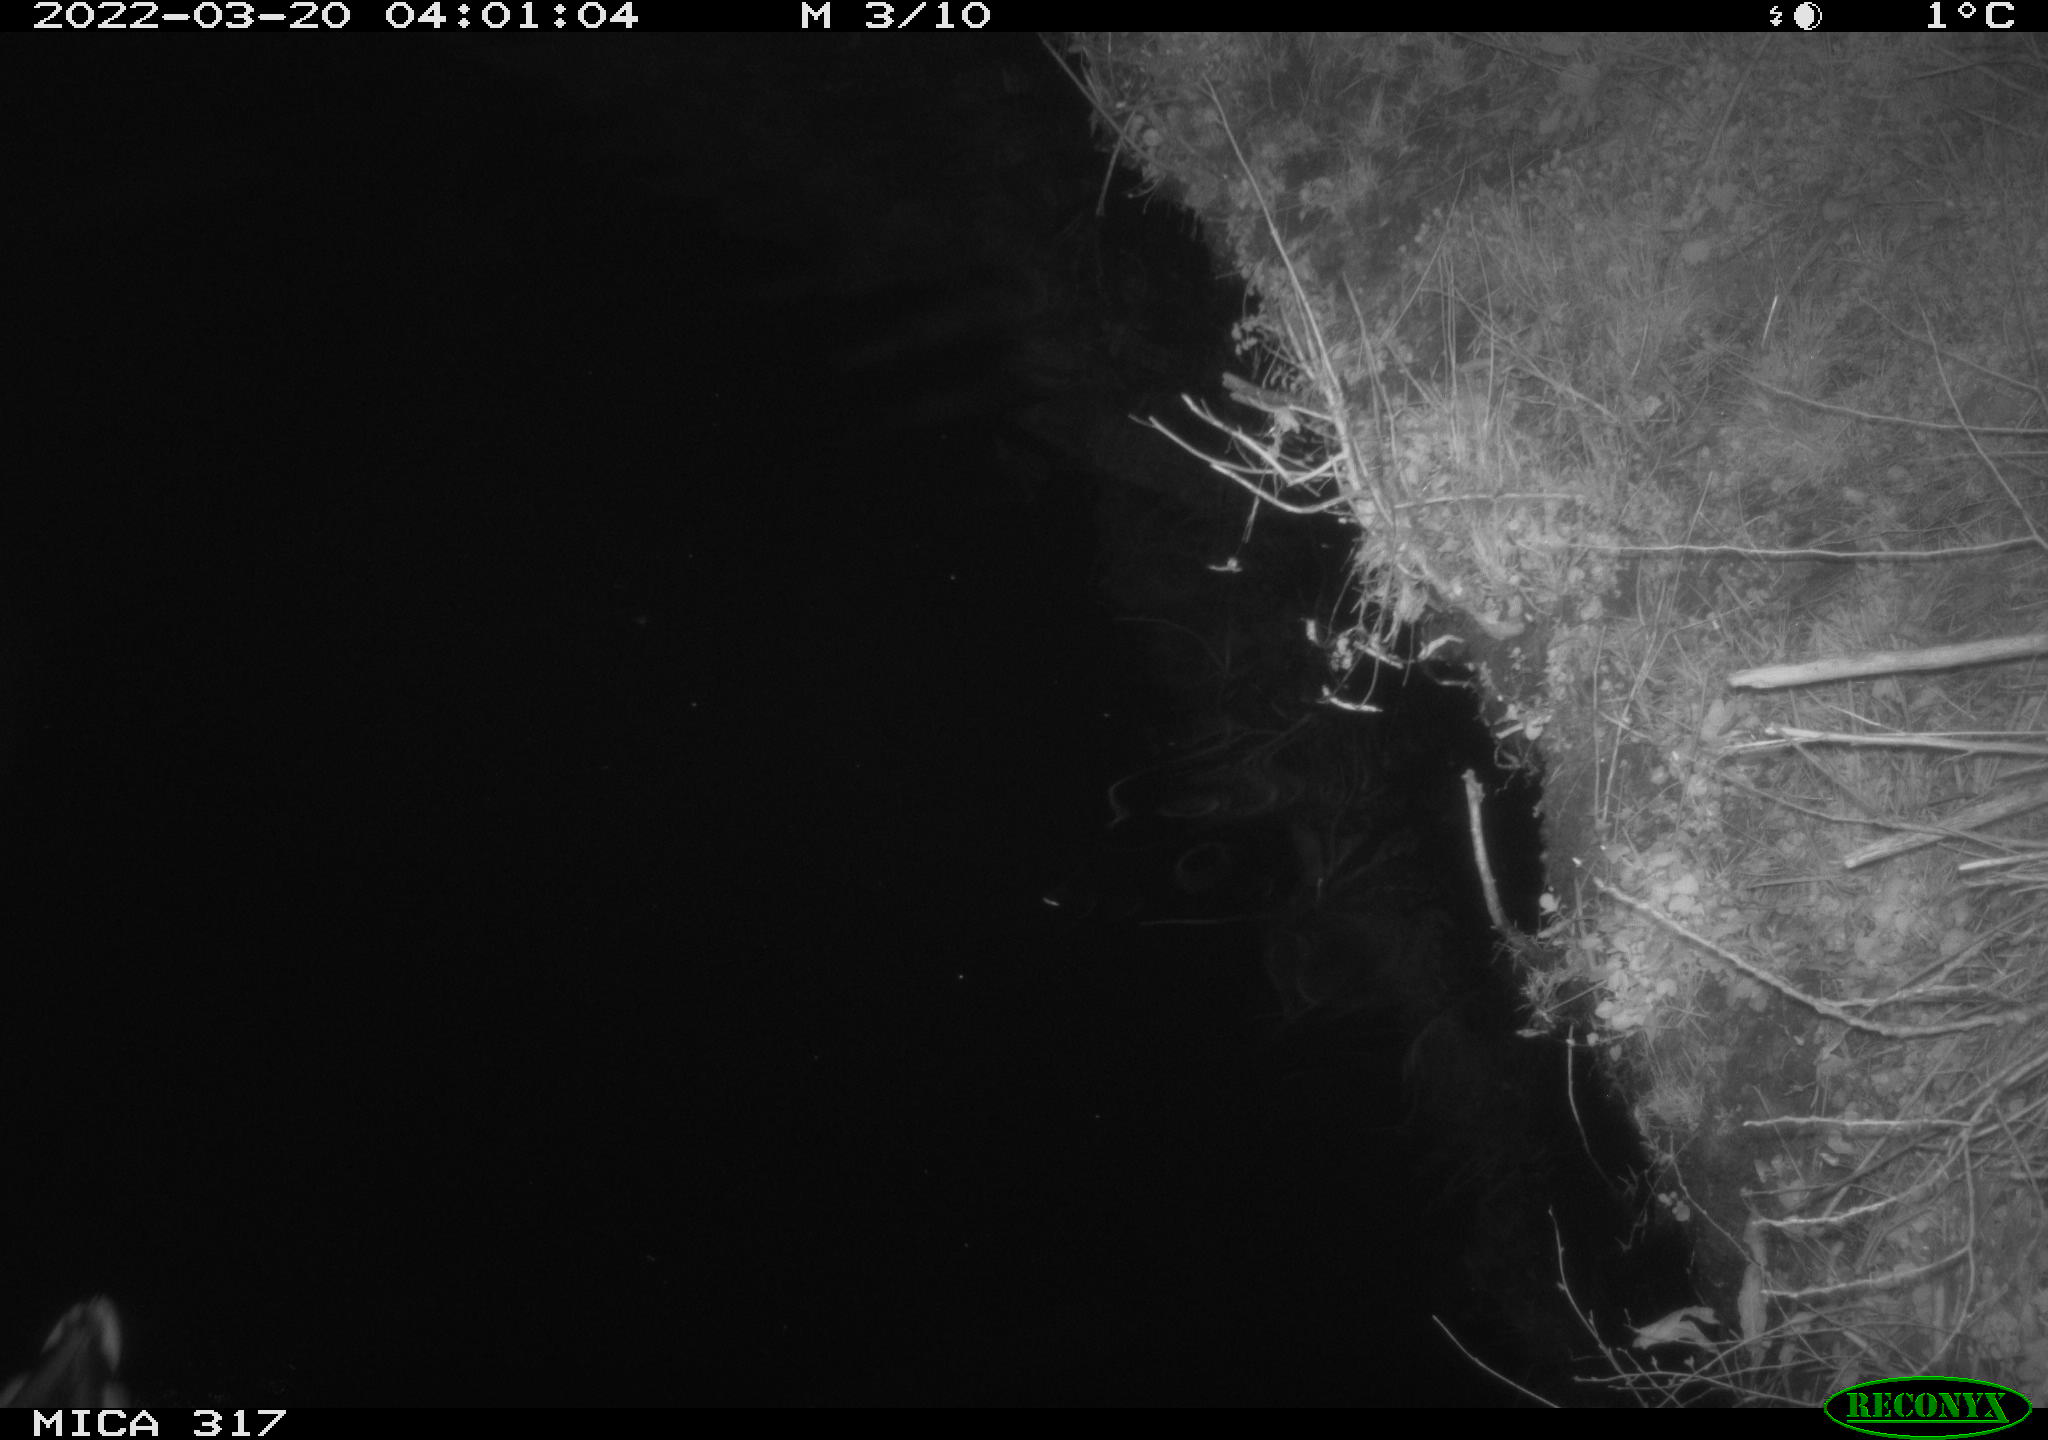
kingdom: Animalia
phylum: Chordata
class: Aves
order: Anseriformes
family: Anatidae
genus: Anas
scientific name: Anas platyrhynchos
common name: Mallard
